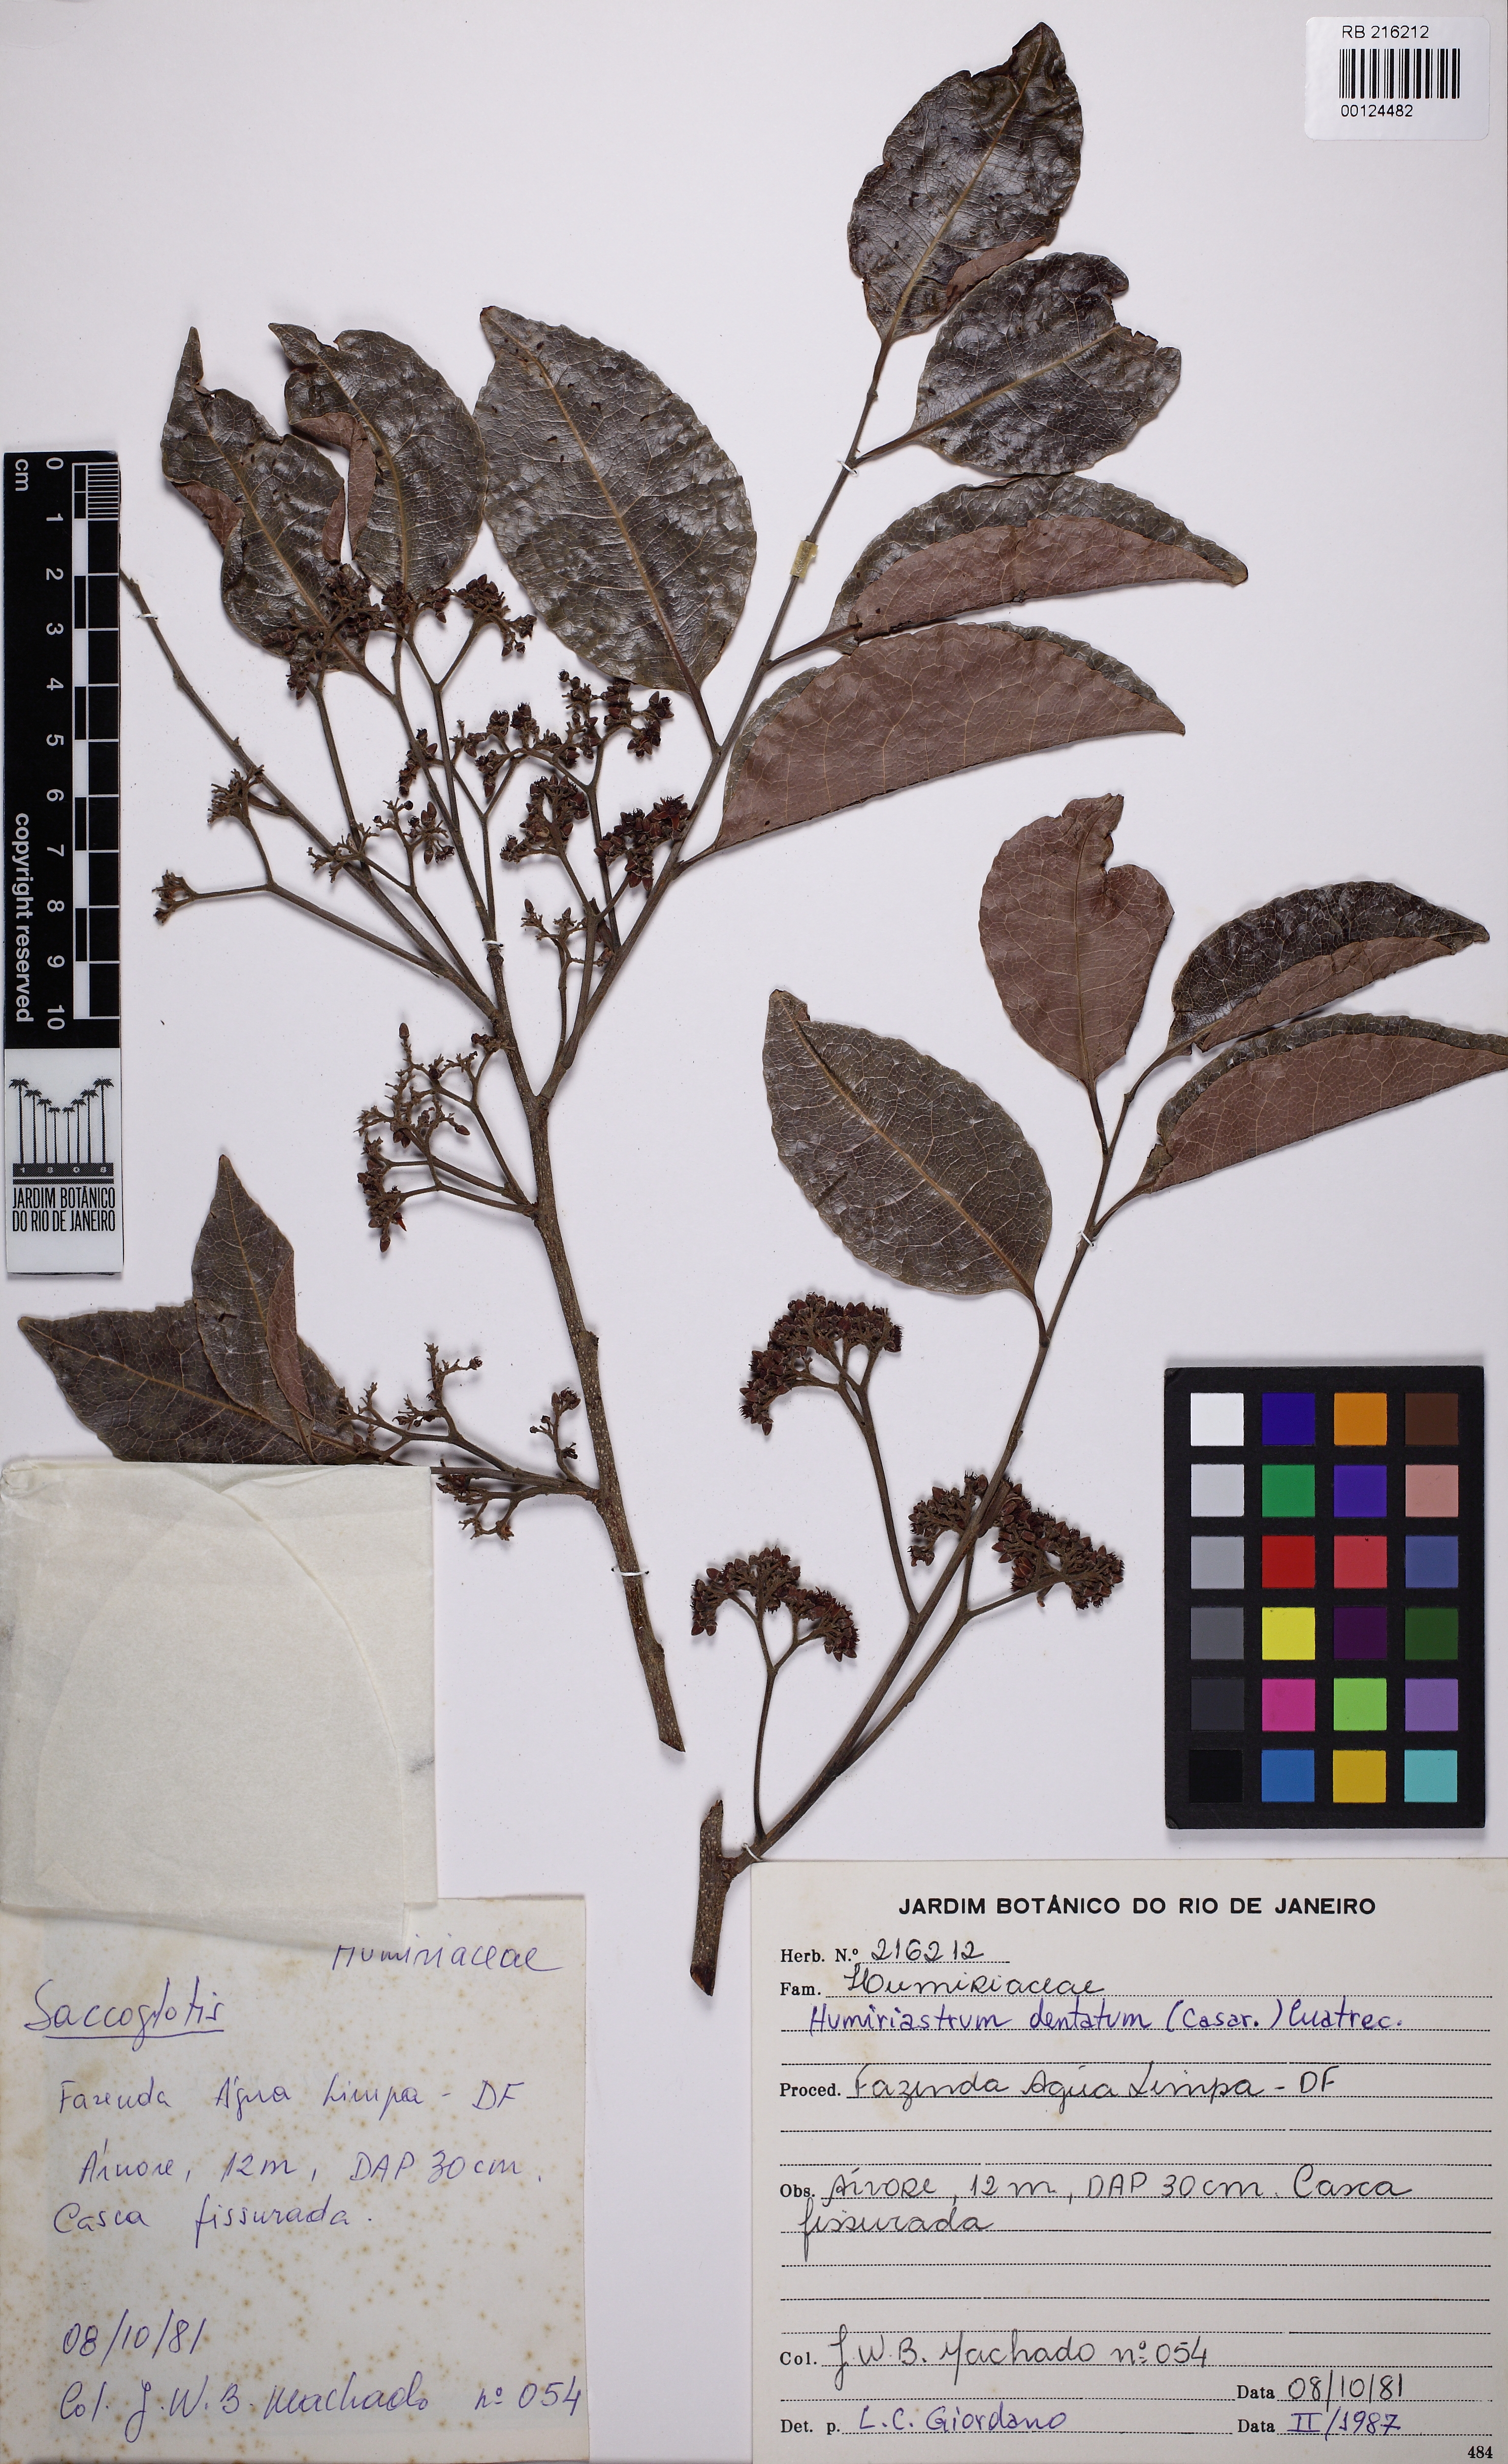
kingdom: Plantae
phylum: Tracheophyta
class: Magnoliopsida
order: Malpighiales
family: Humiriaceae
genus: Humiriastrum
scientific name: Humiriastrum dentatum
